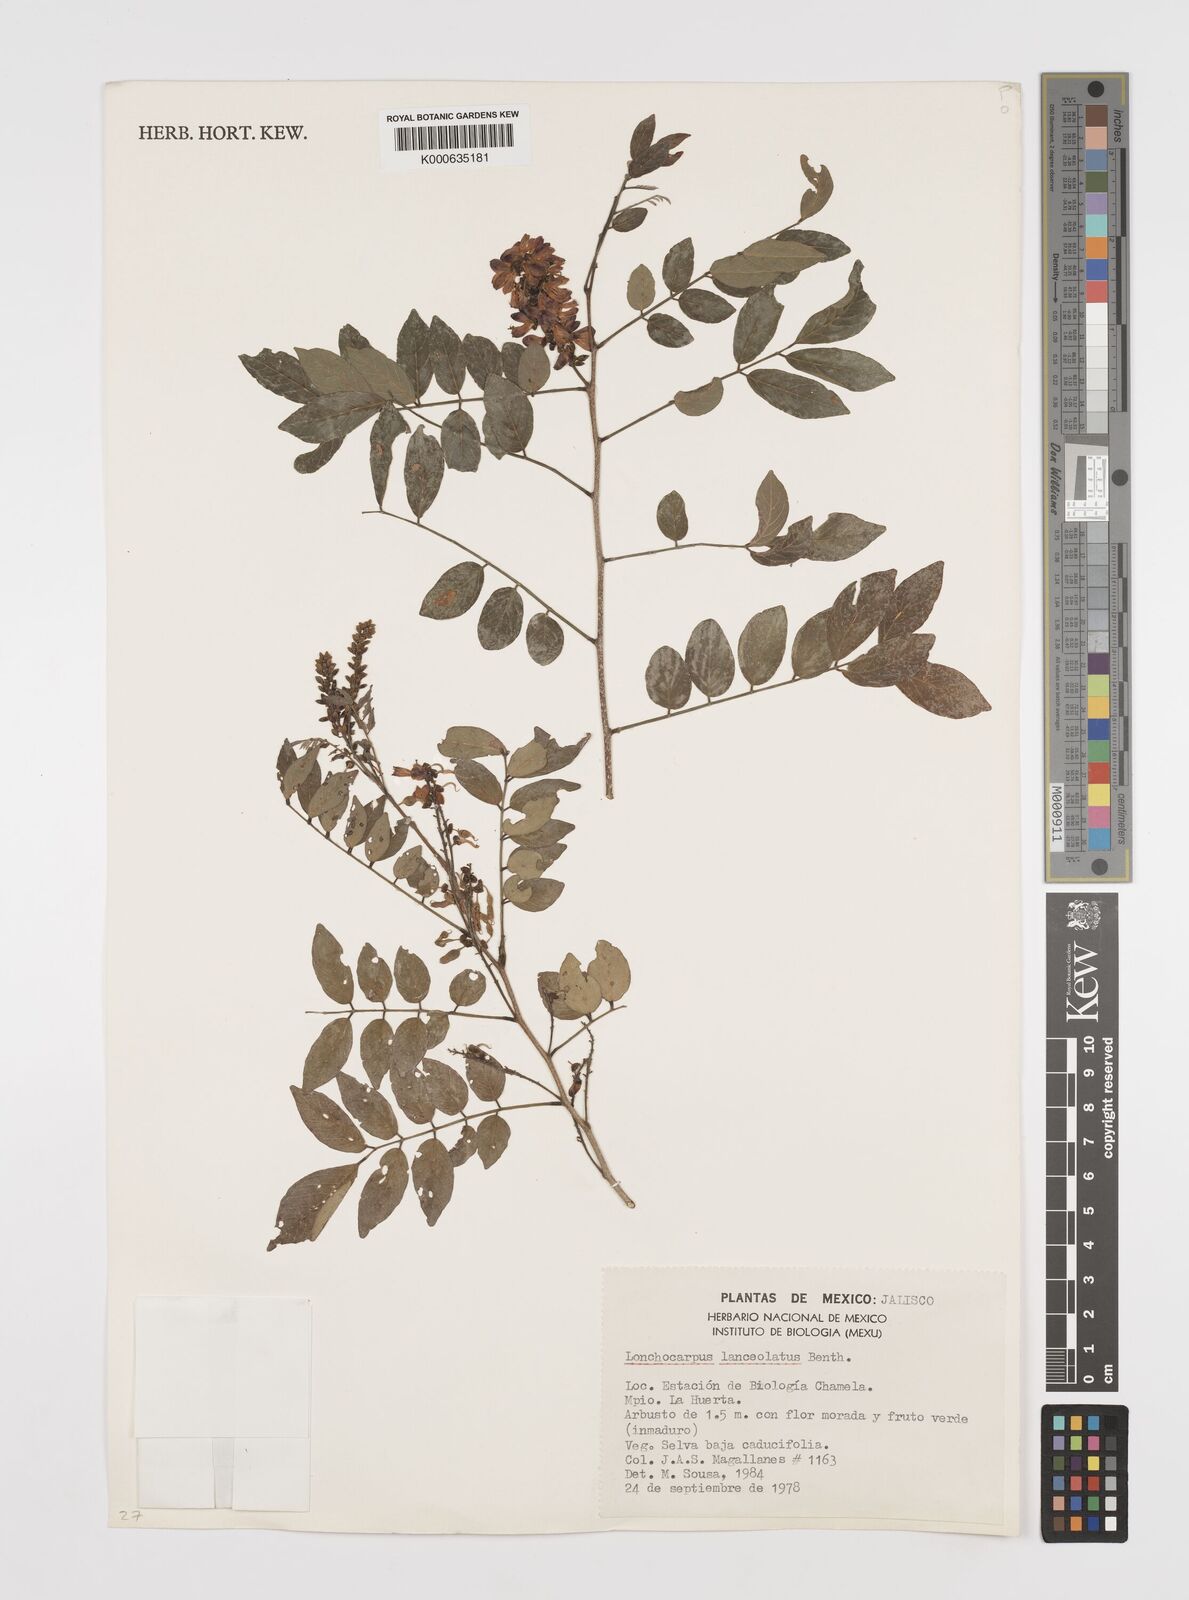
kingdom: Plantae
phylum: Tracheophyta
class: Magnoliopsida
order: Fabales
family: Fabaceae
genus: Lonchocarpus
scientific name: Lonchocarpus lanceolatus
